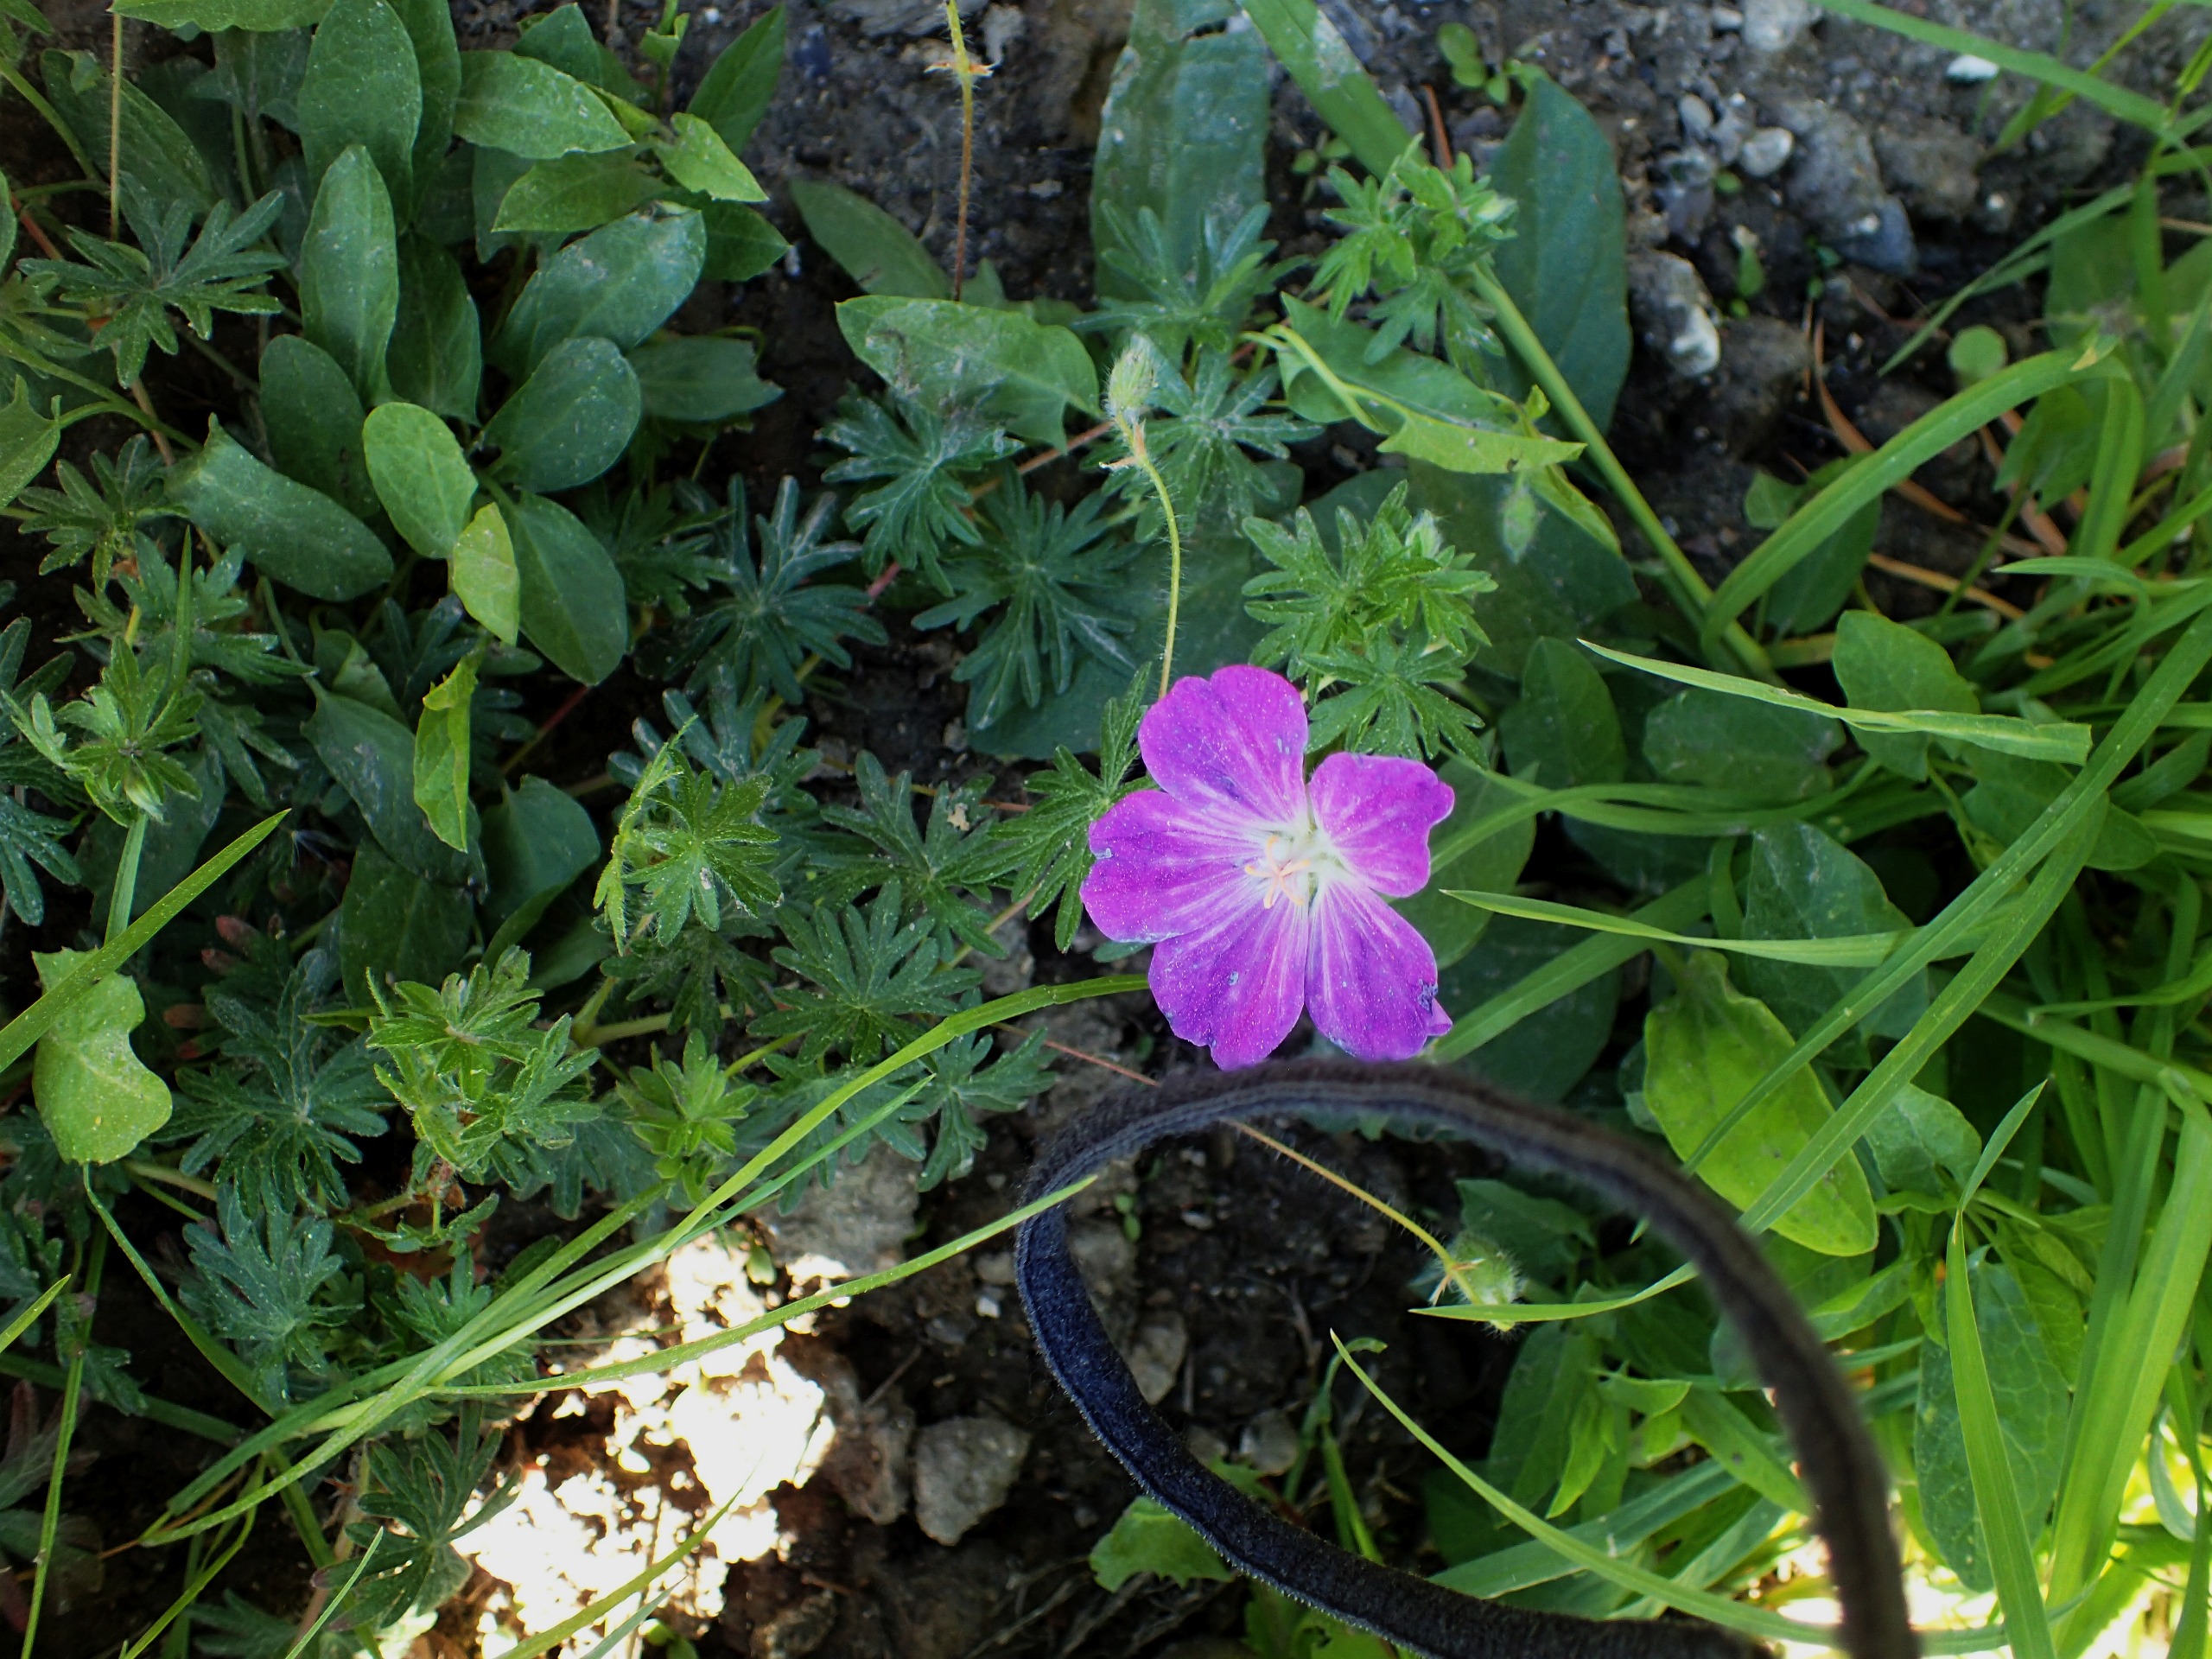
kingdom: Plantae
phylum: Tracheophyta
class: Magnoliopsida
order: Geraniales
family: Geraniaceae
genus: Geranium
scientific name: Geranium sanguineum
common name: Blodrød storkenæb
